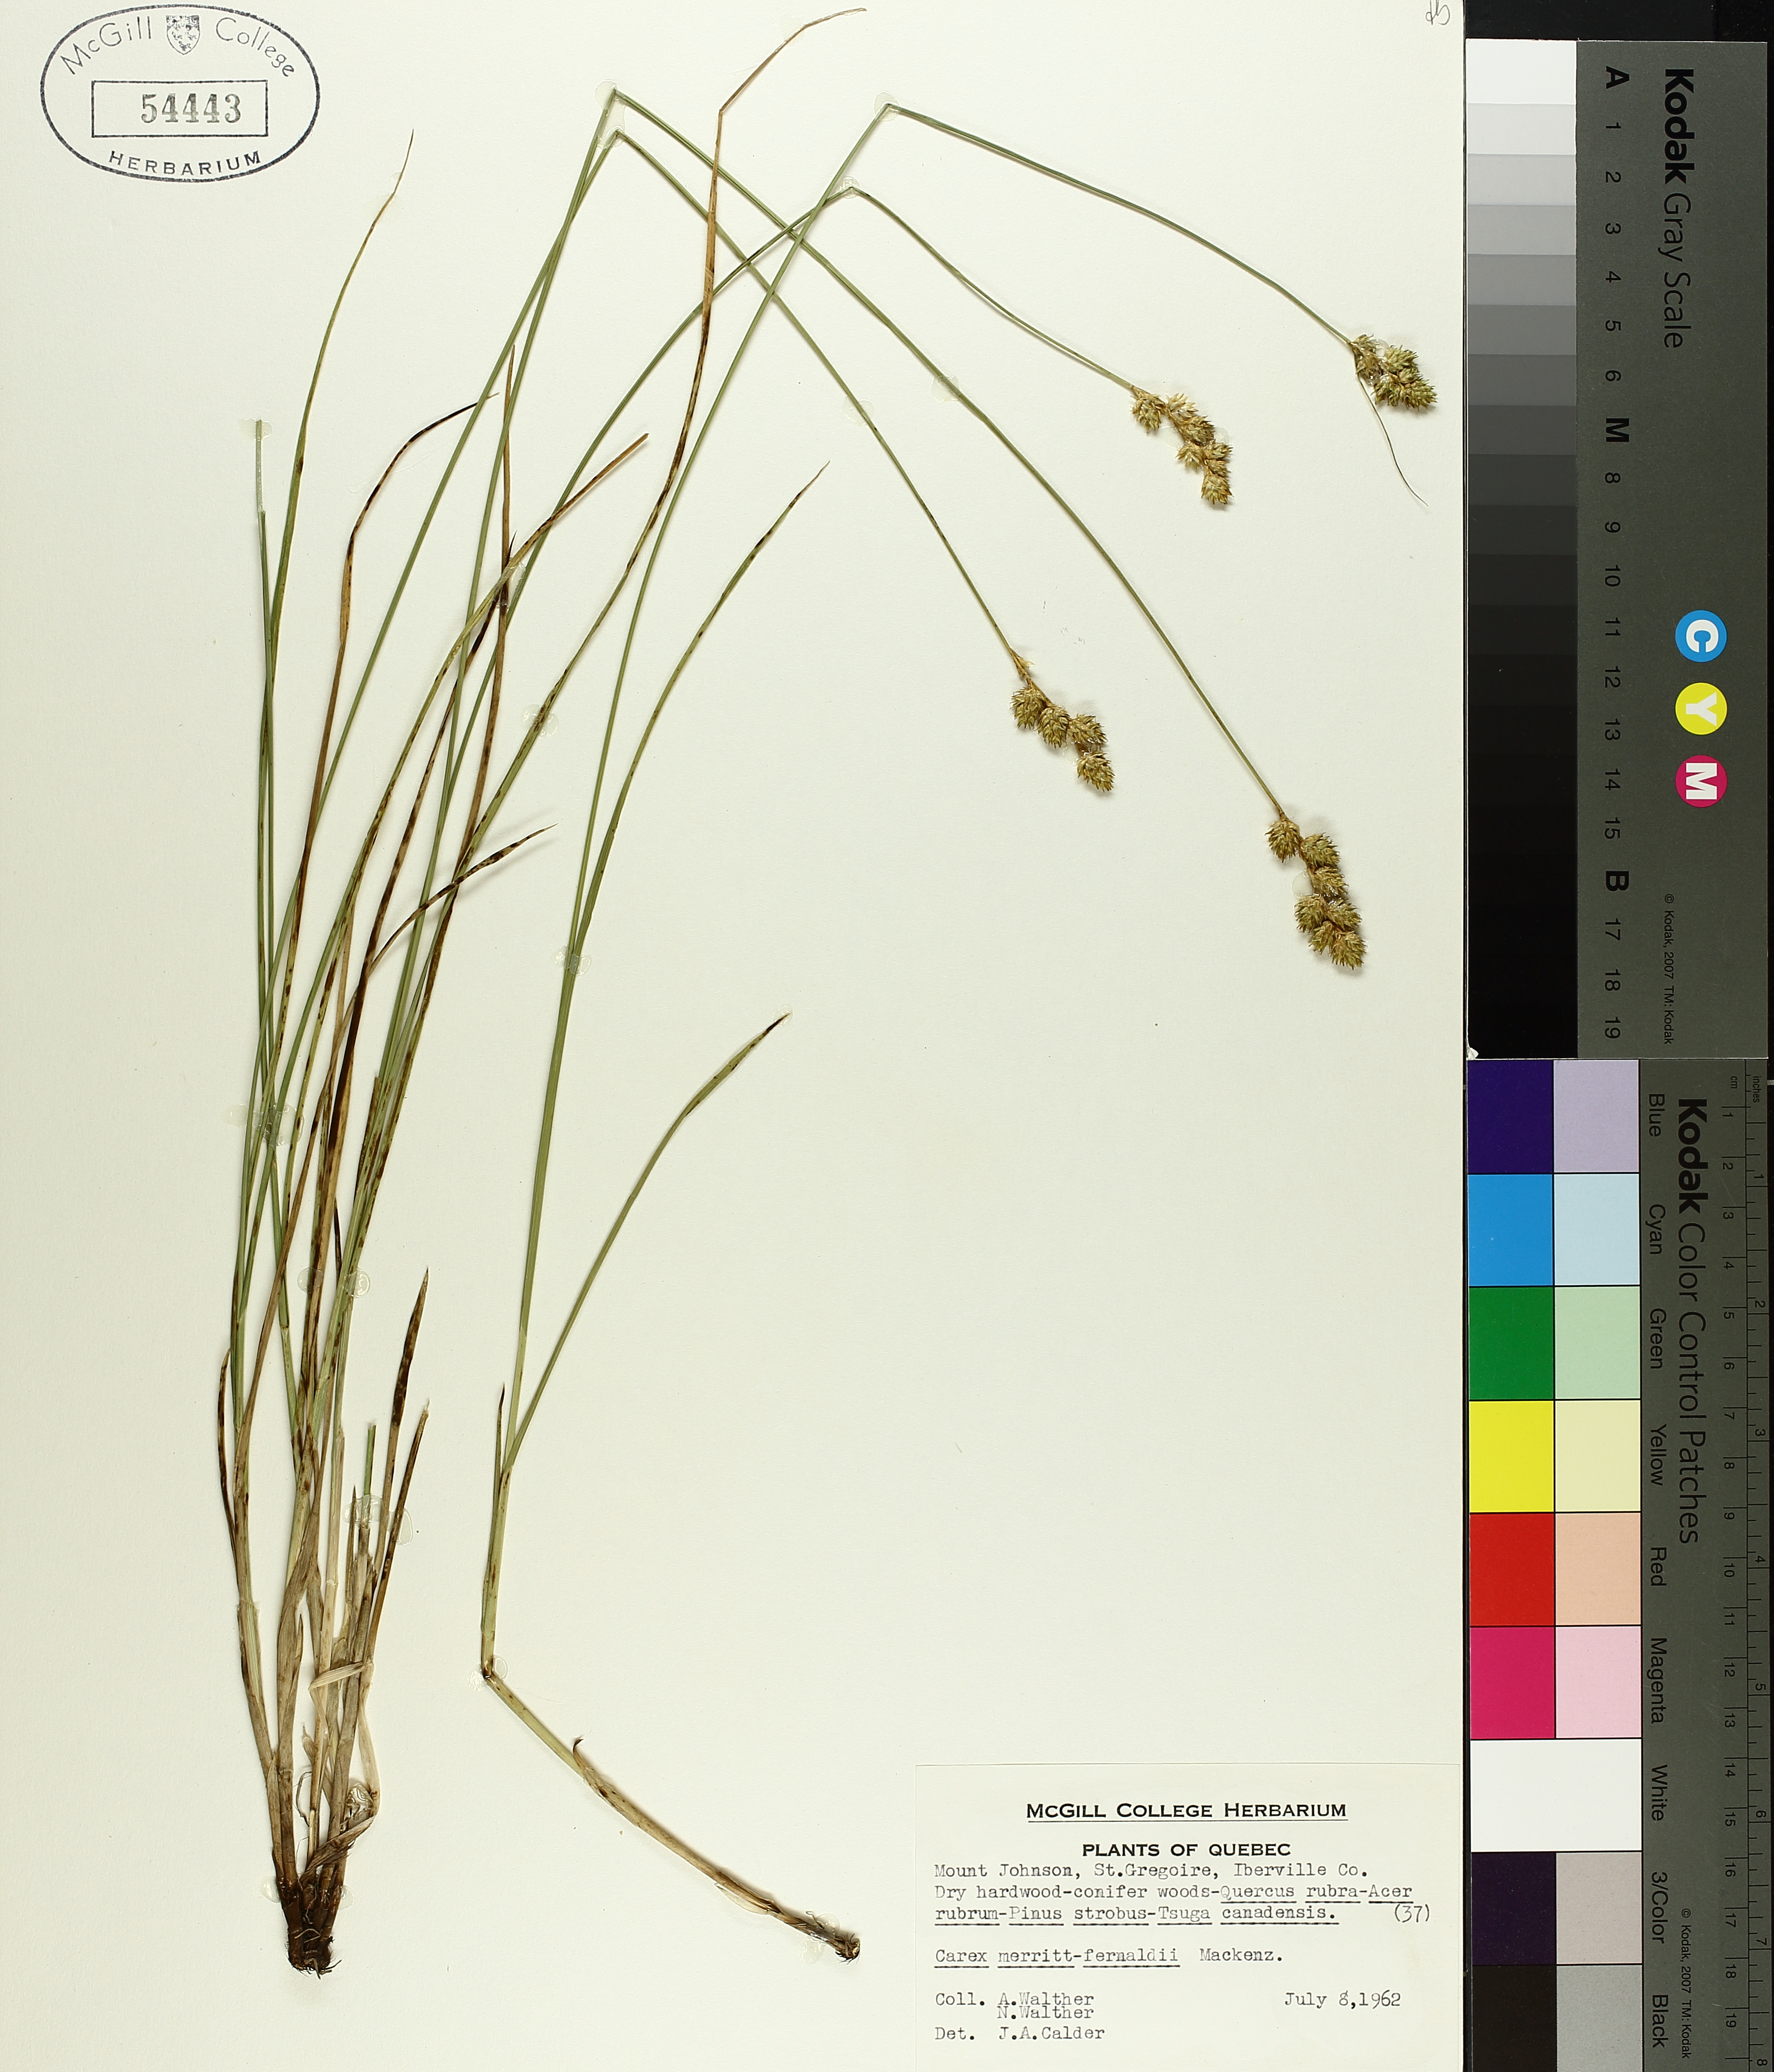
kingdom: Plantae
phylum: Tracheophyta
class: Liliopsida
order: Poales
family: Cyperaceae
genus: Carex
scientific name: Carex merritt-fernaldii
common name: Fernald's oval sedge
